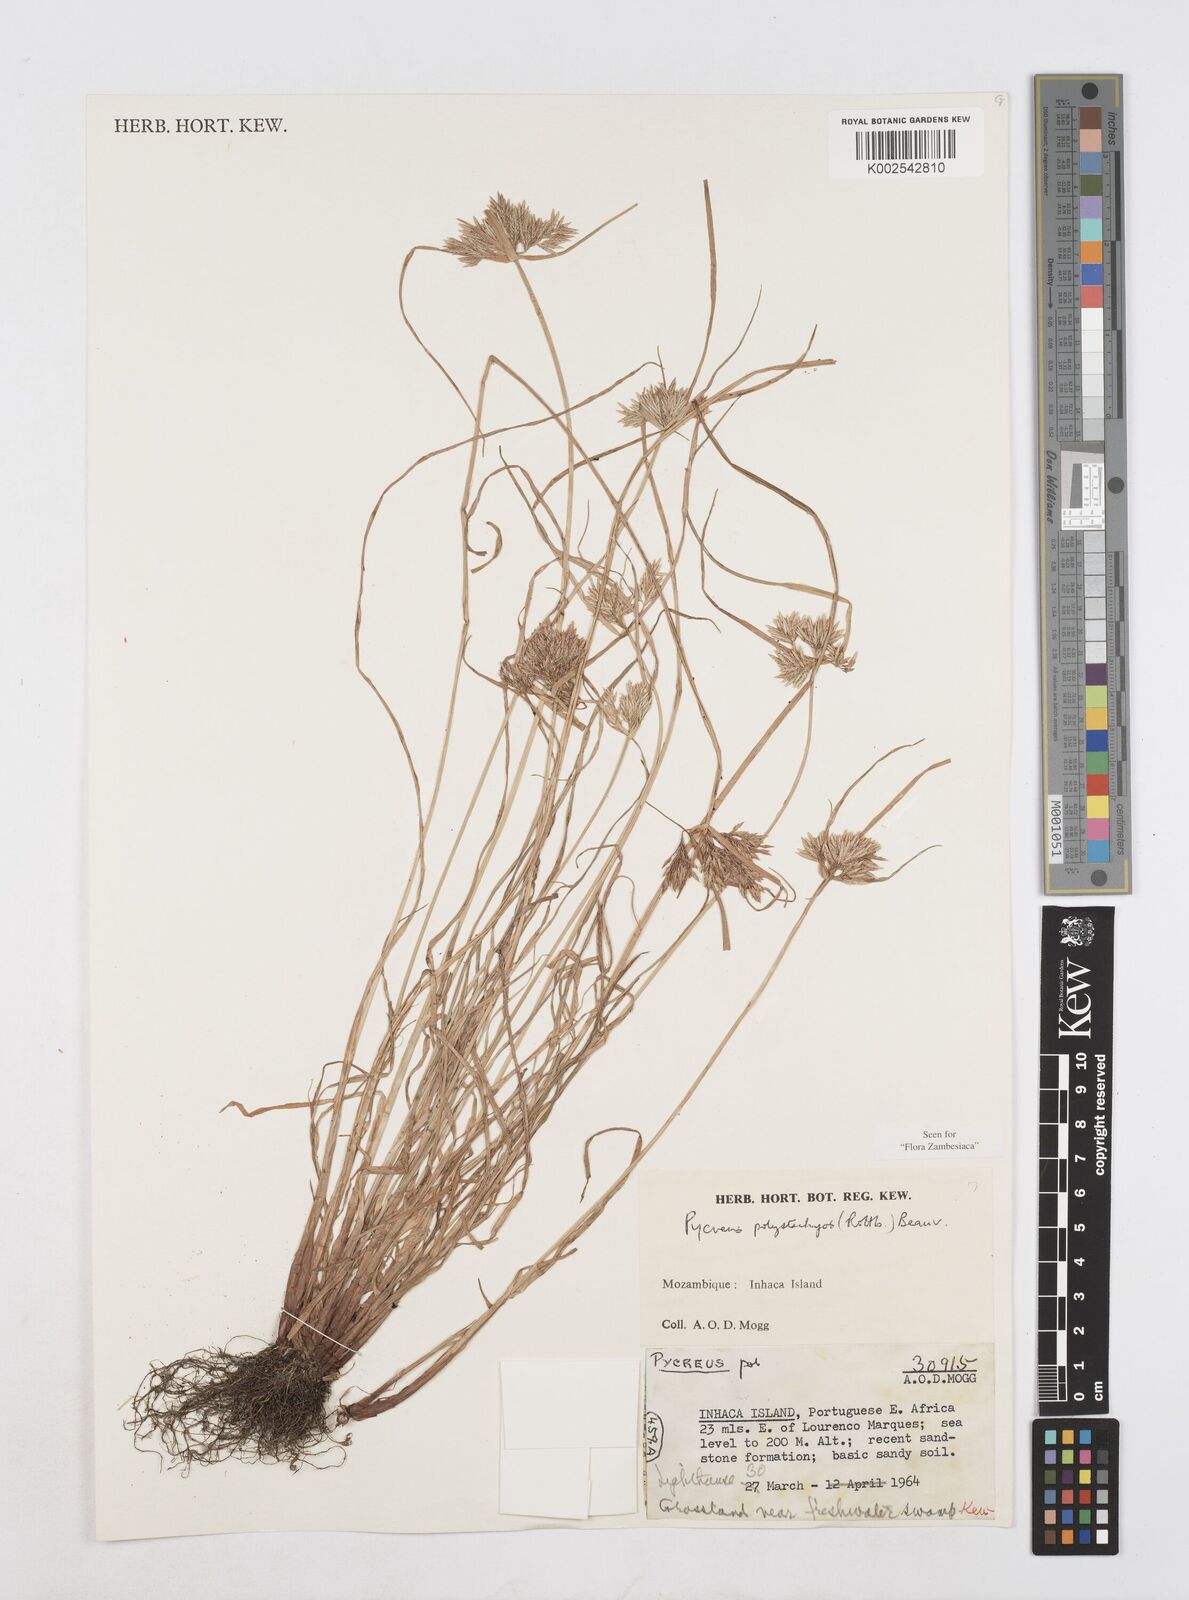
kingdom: Plantae
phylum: Tracheophyta
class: Liliopsida
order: Poales
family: Cyperaceae
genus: Cyperus
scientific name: Cyperus polystachyos
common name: Bunchy flat sedge
